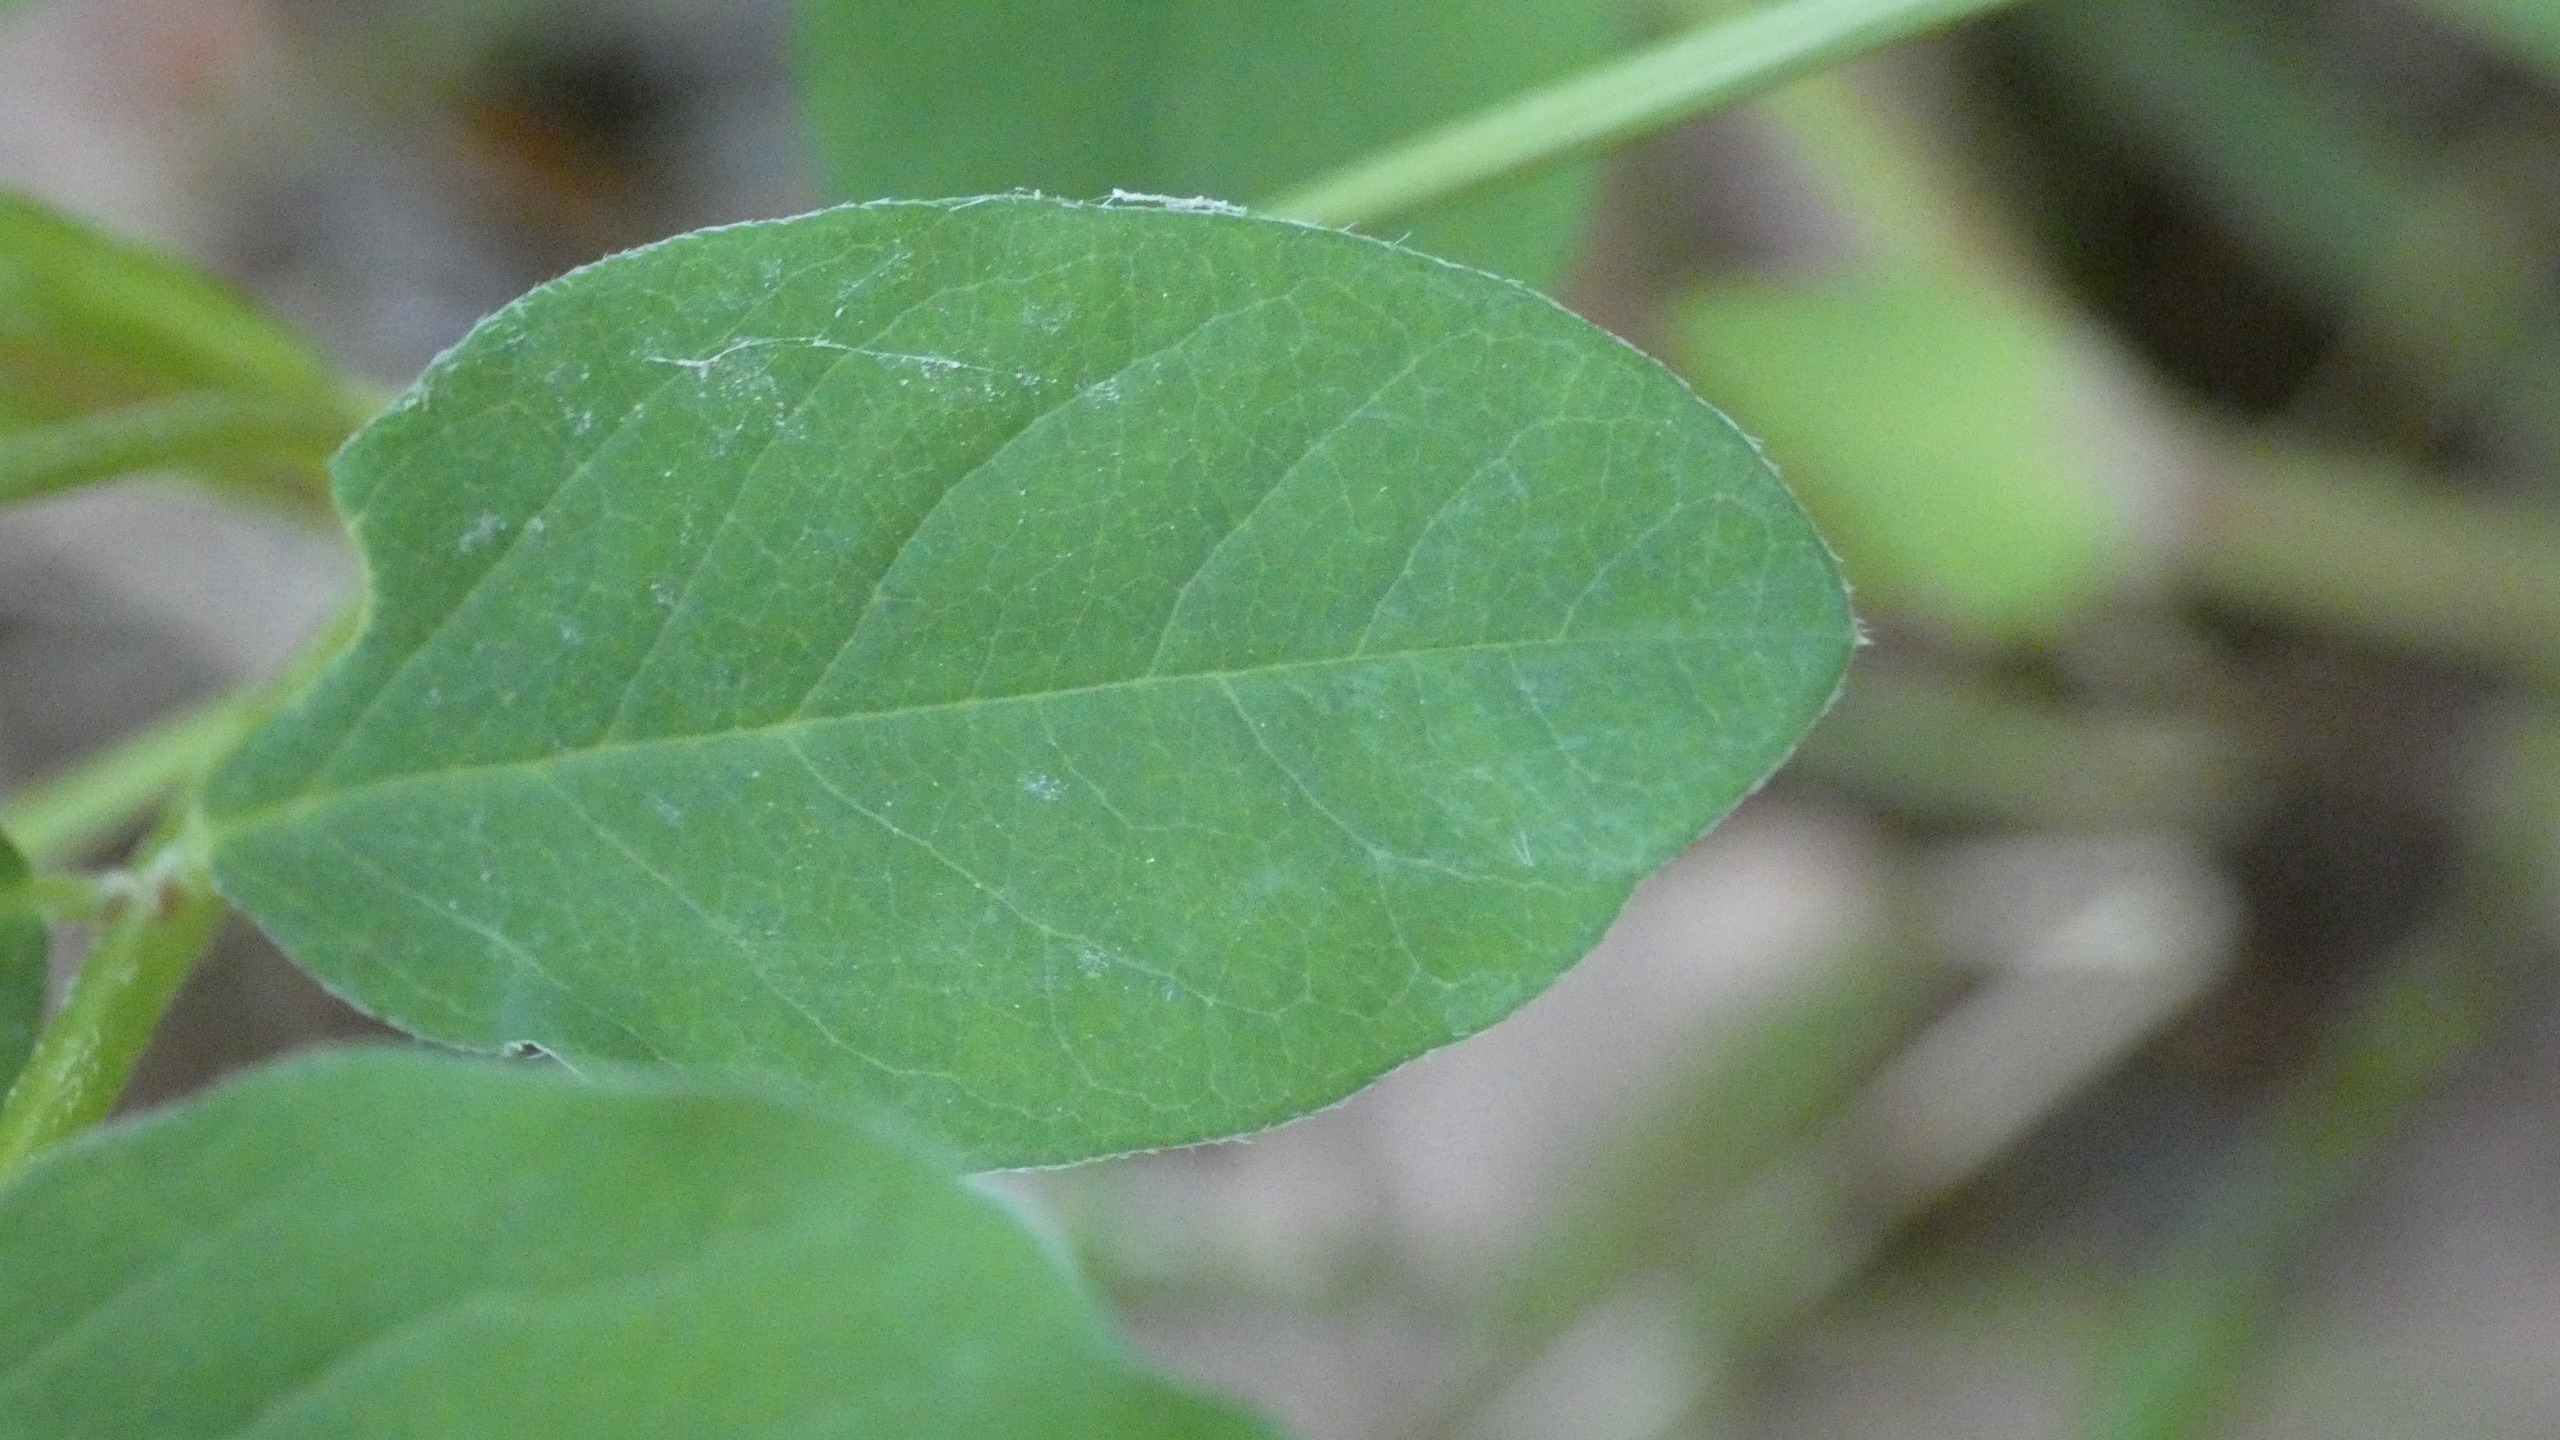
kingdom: Plantae
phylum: Tracheophyta
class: Magnoliopsida
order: Fabales
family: Fabaceae
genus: Astragalus
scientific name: Astragalus glycyphyllos
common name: Sød astragel
